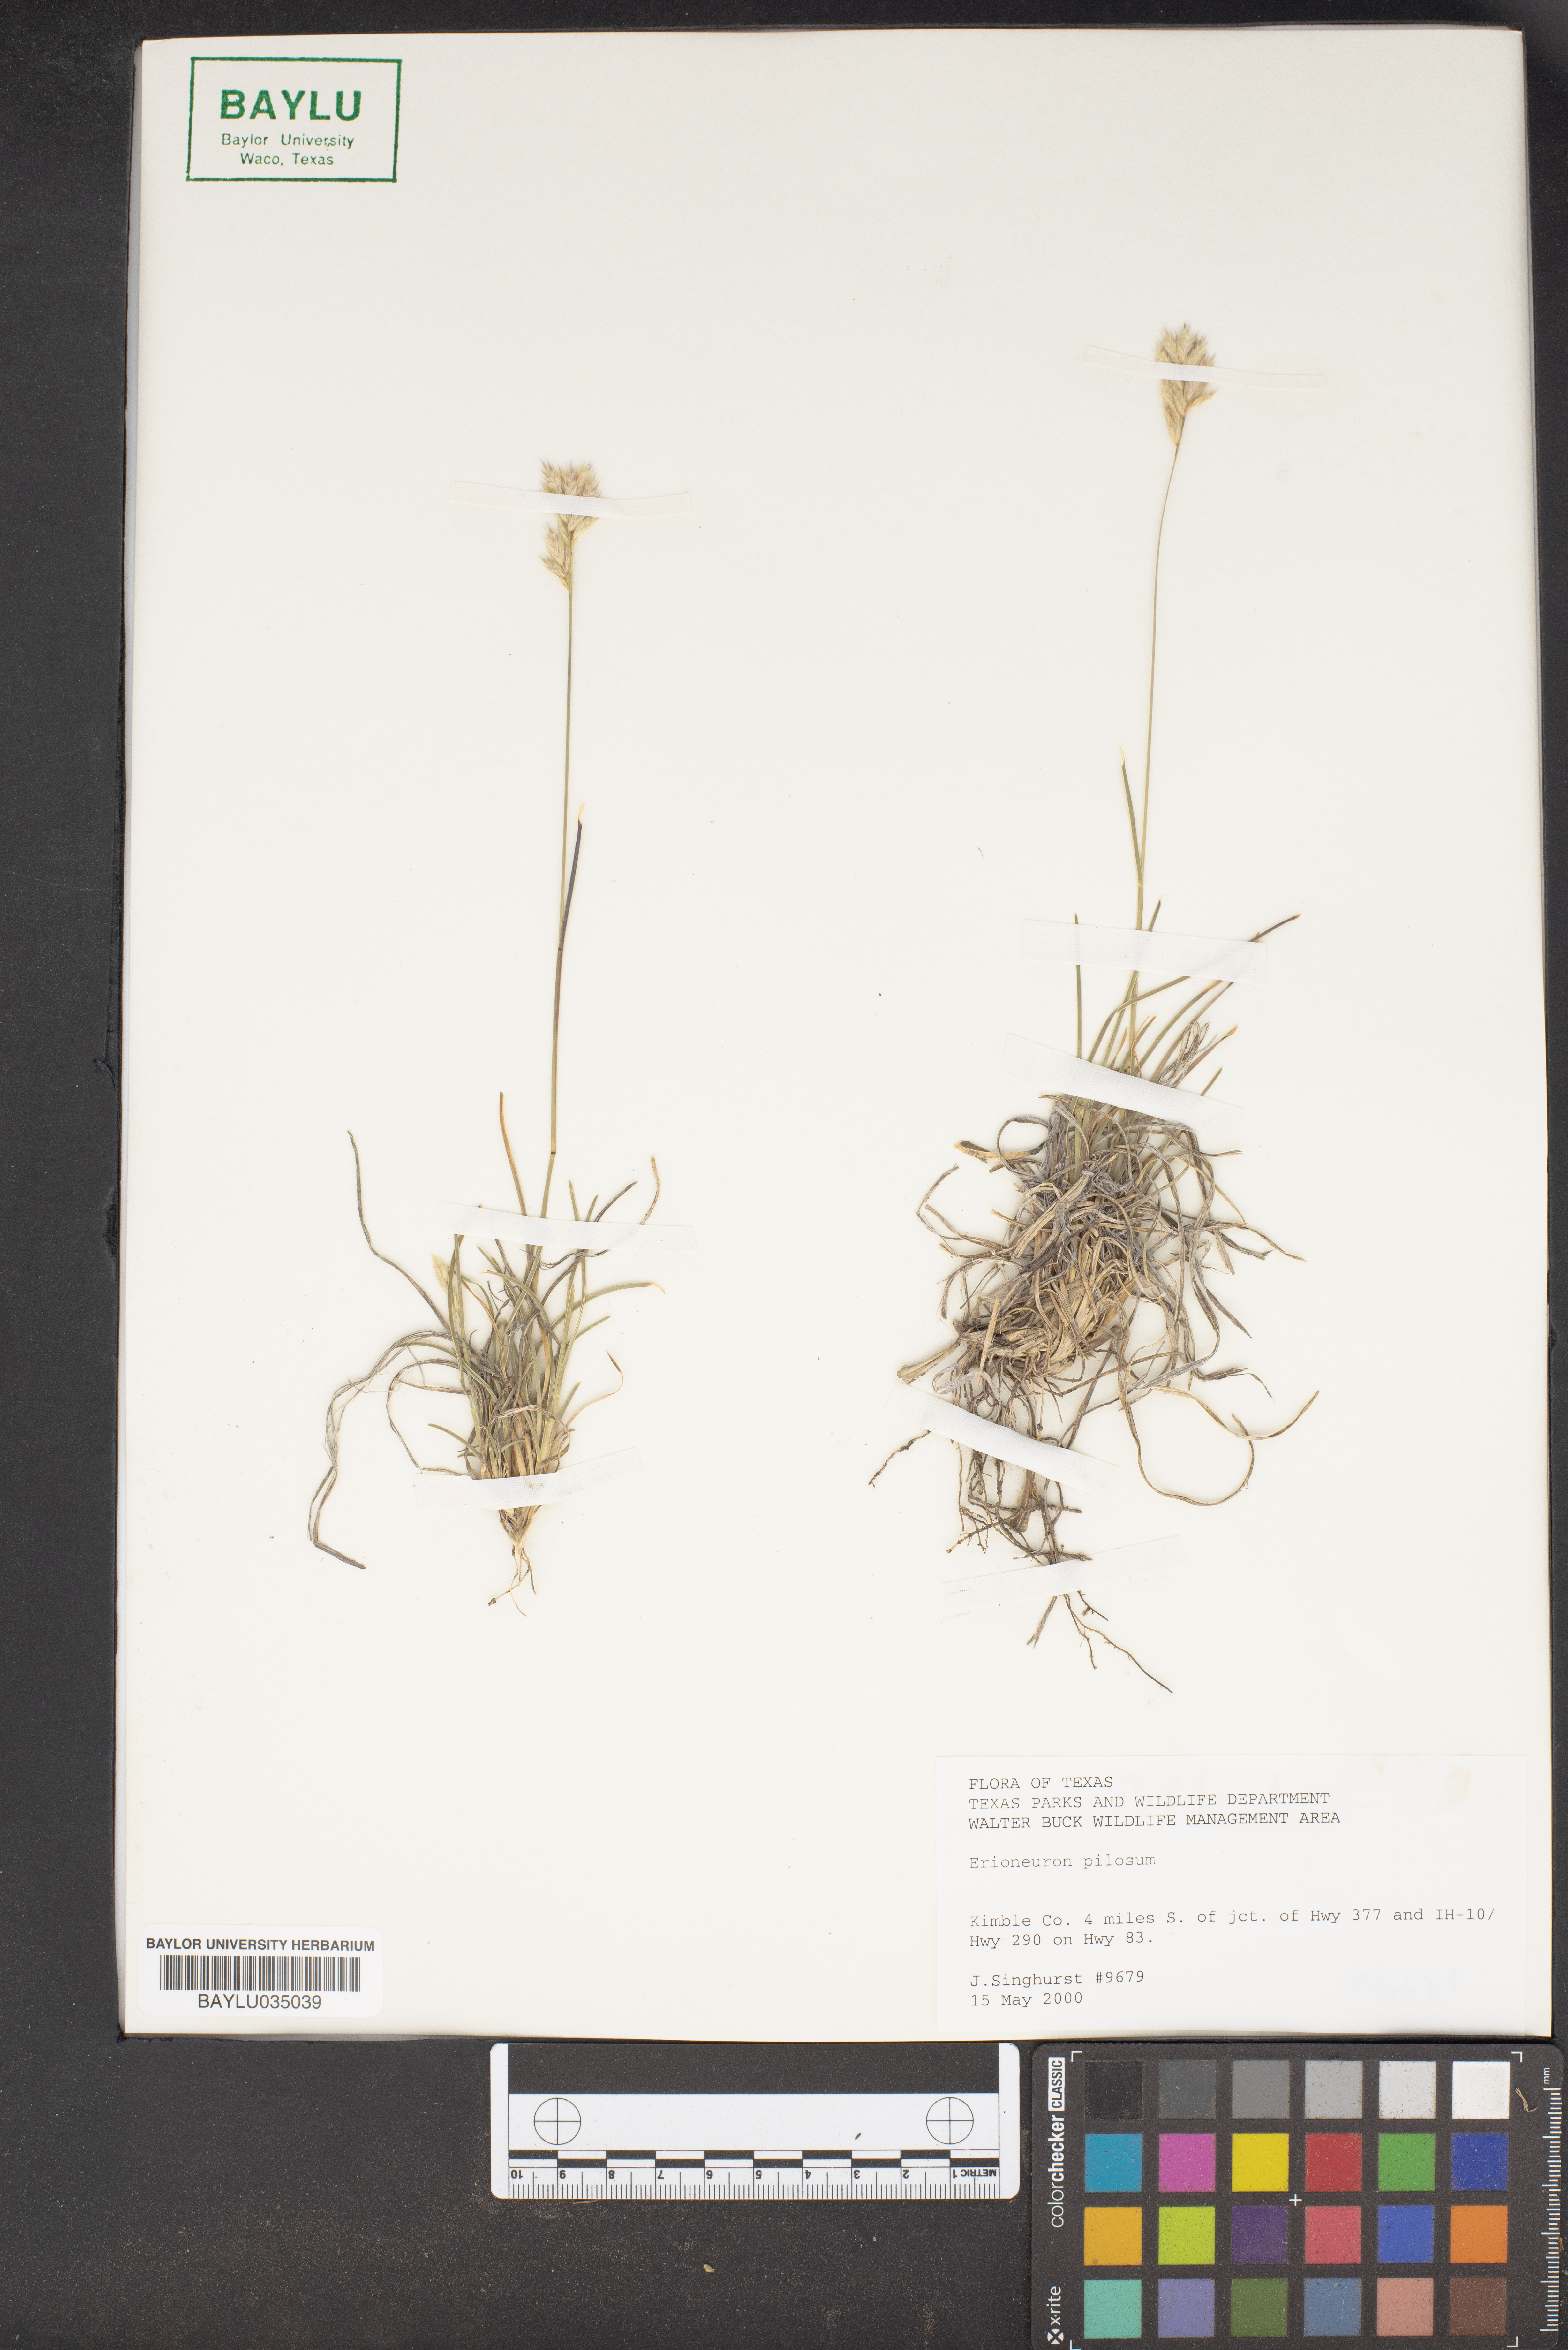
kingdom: Plantae
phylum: Tracheophyta
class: Liliopsida
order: Poales
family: Poaceae
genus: Erioneuron
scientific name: Erioneuron pilosum
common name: Hairy woolly grass
